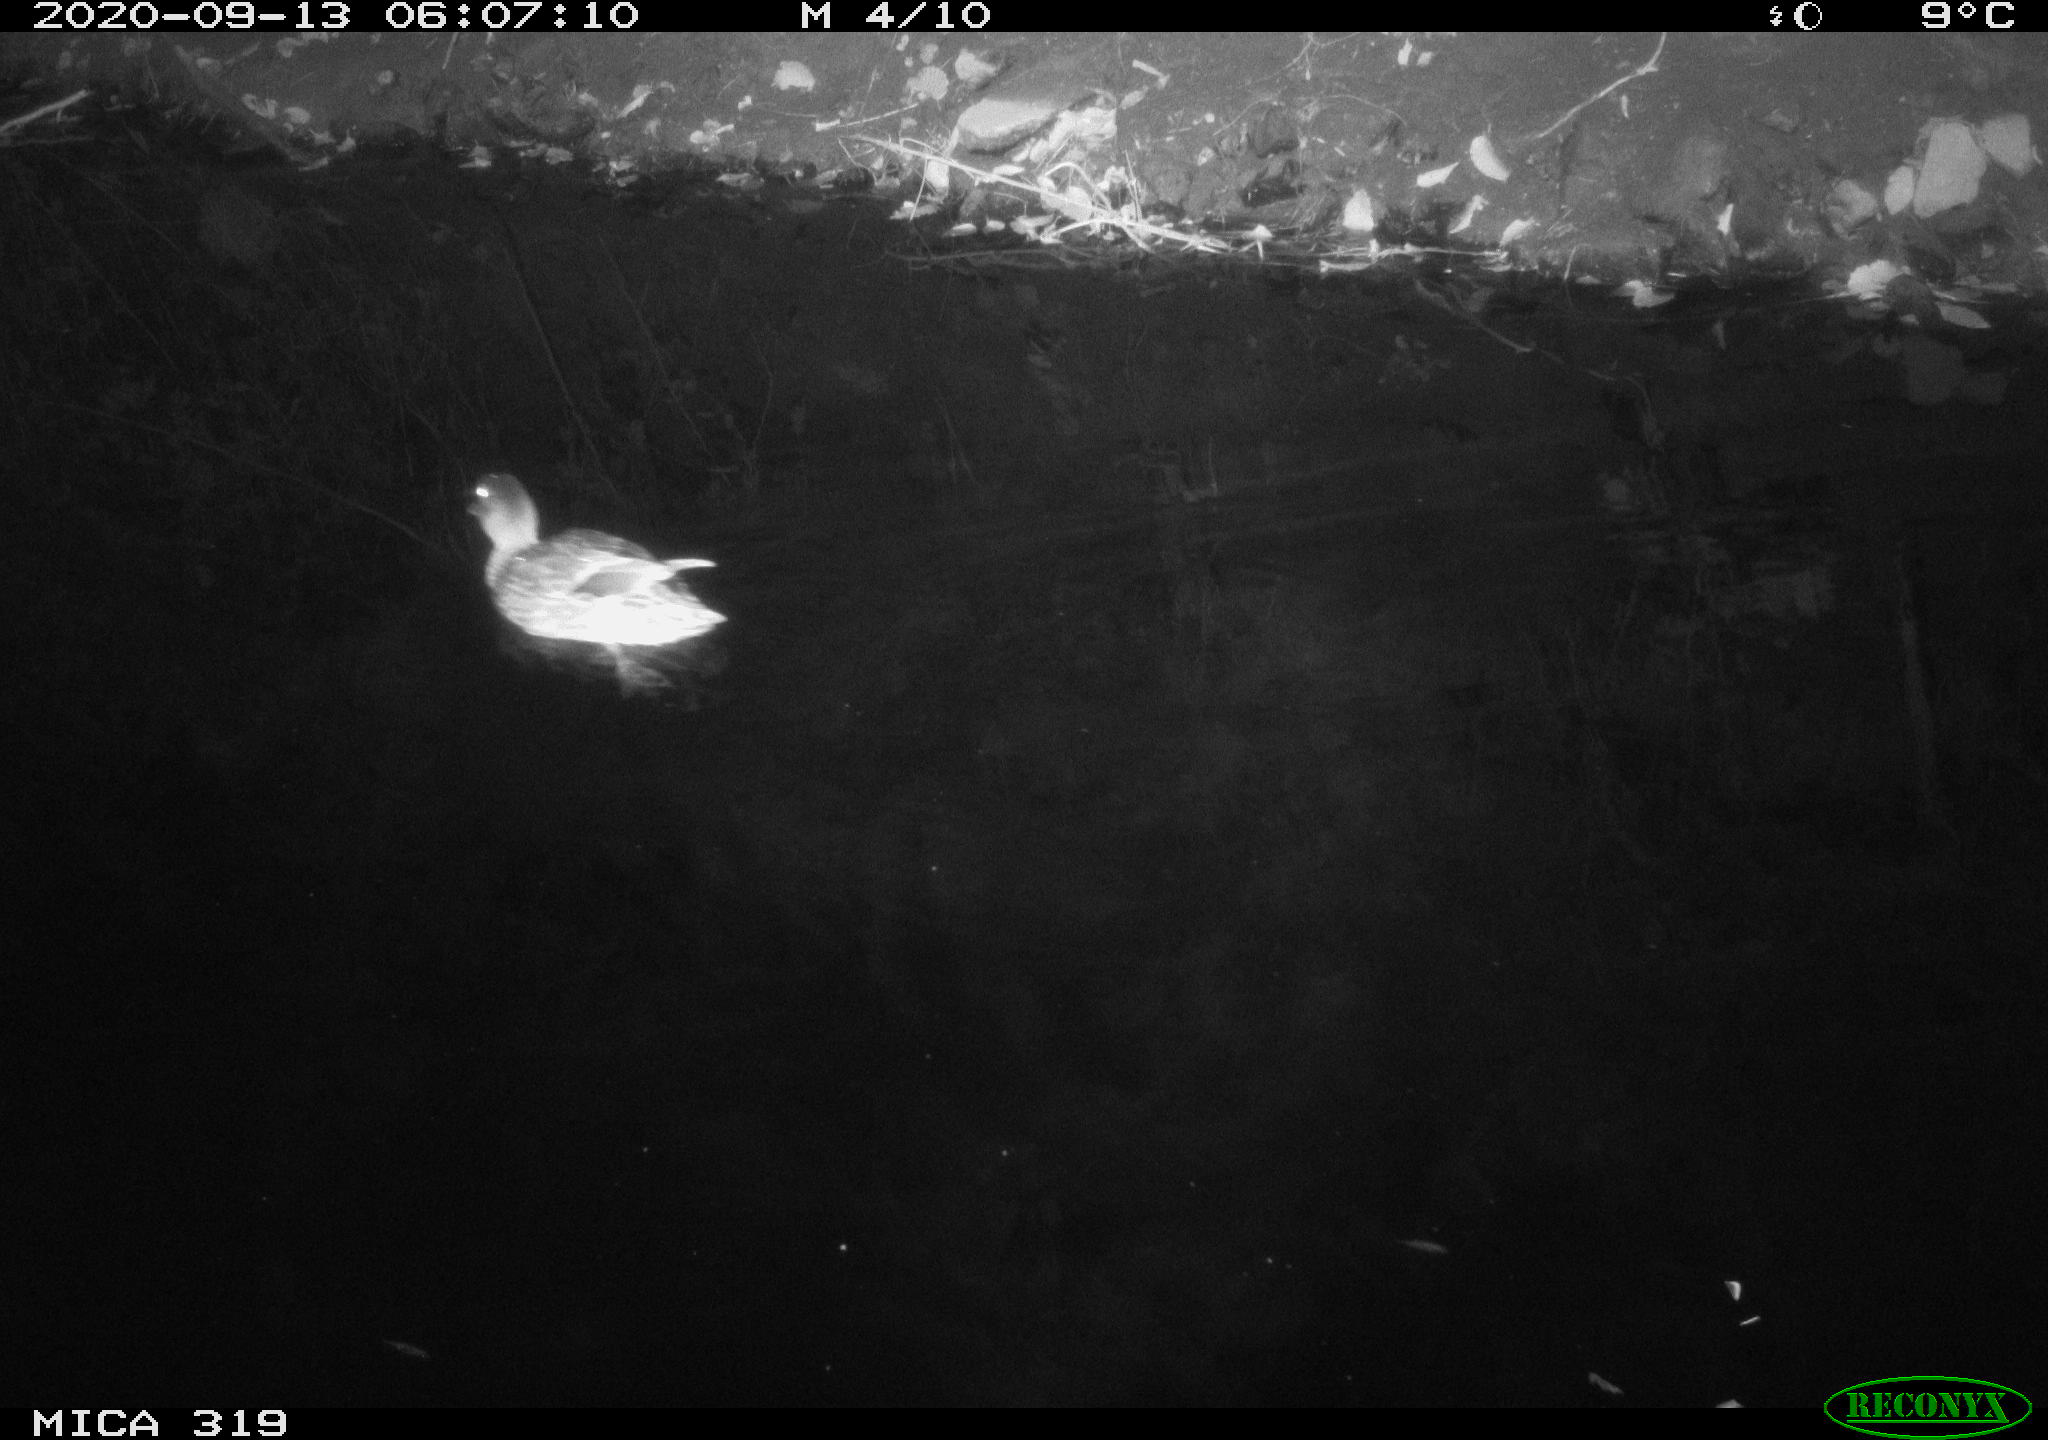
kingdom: Animalia
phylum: Chordata
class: Aves
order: Anseriformes
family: Anatidae
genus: Anas
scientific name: Anas platyrhynchos
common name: Mallard
